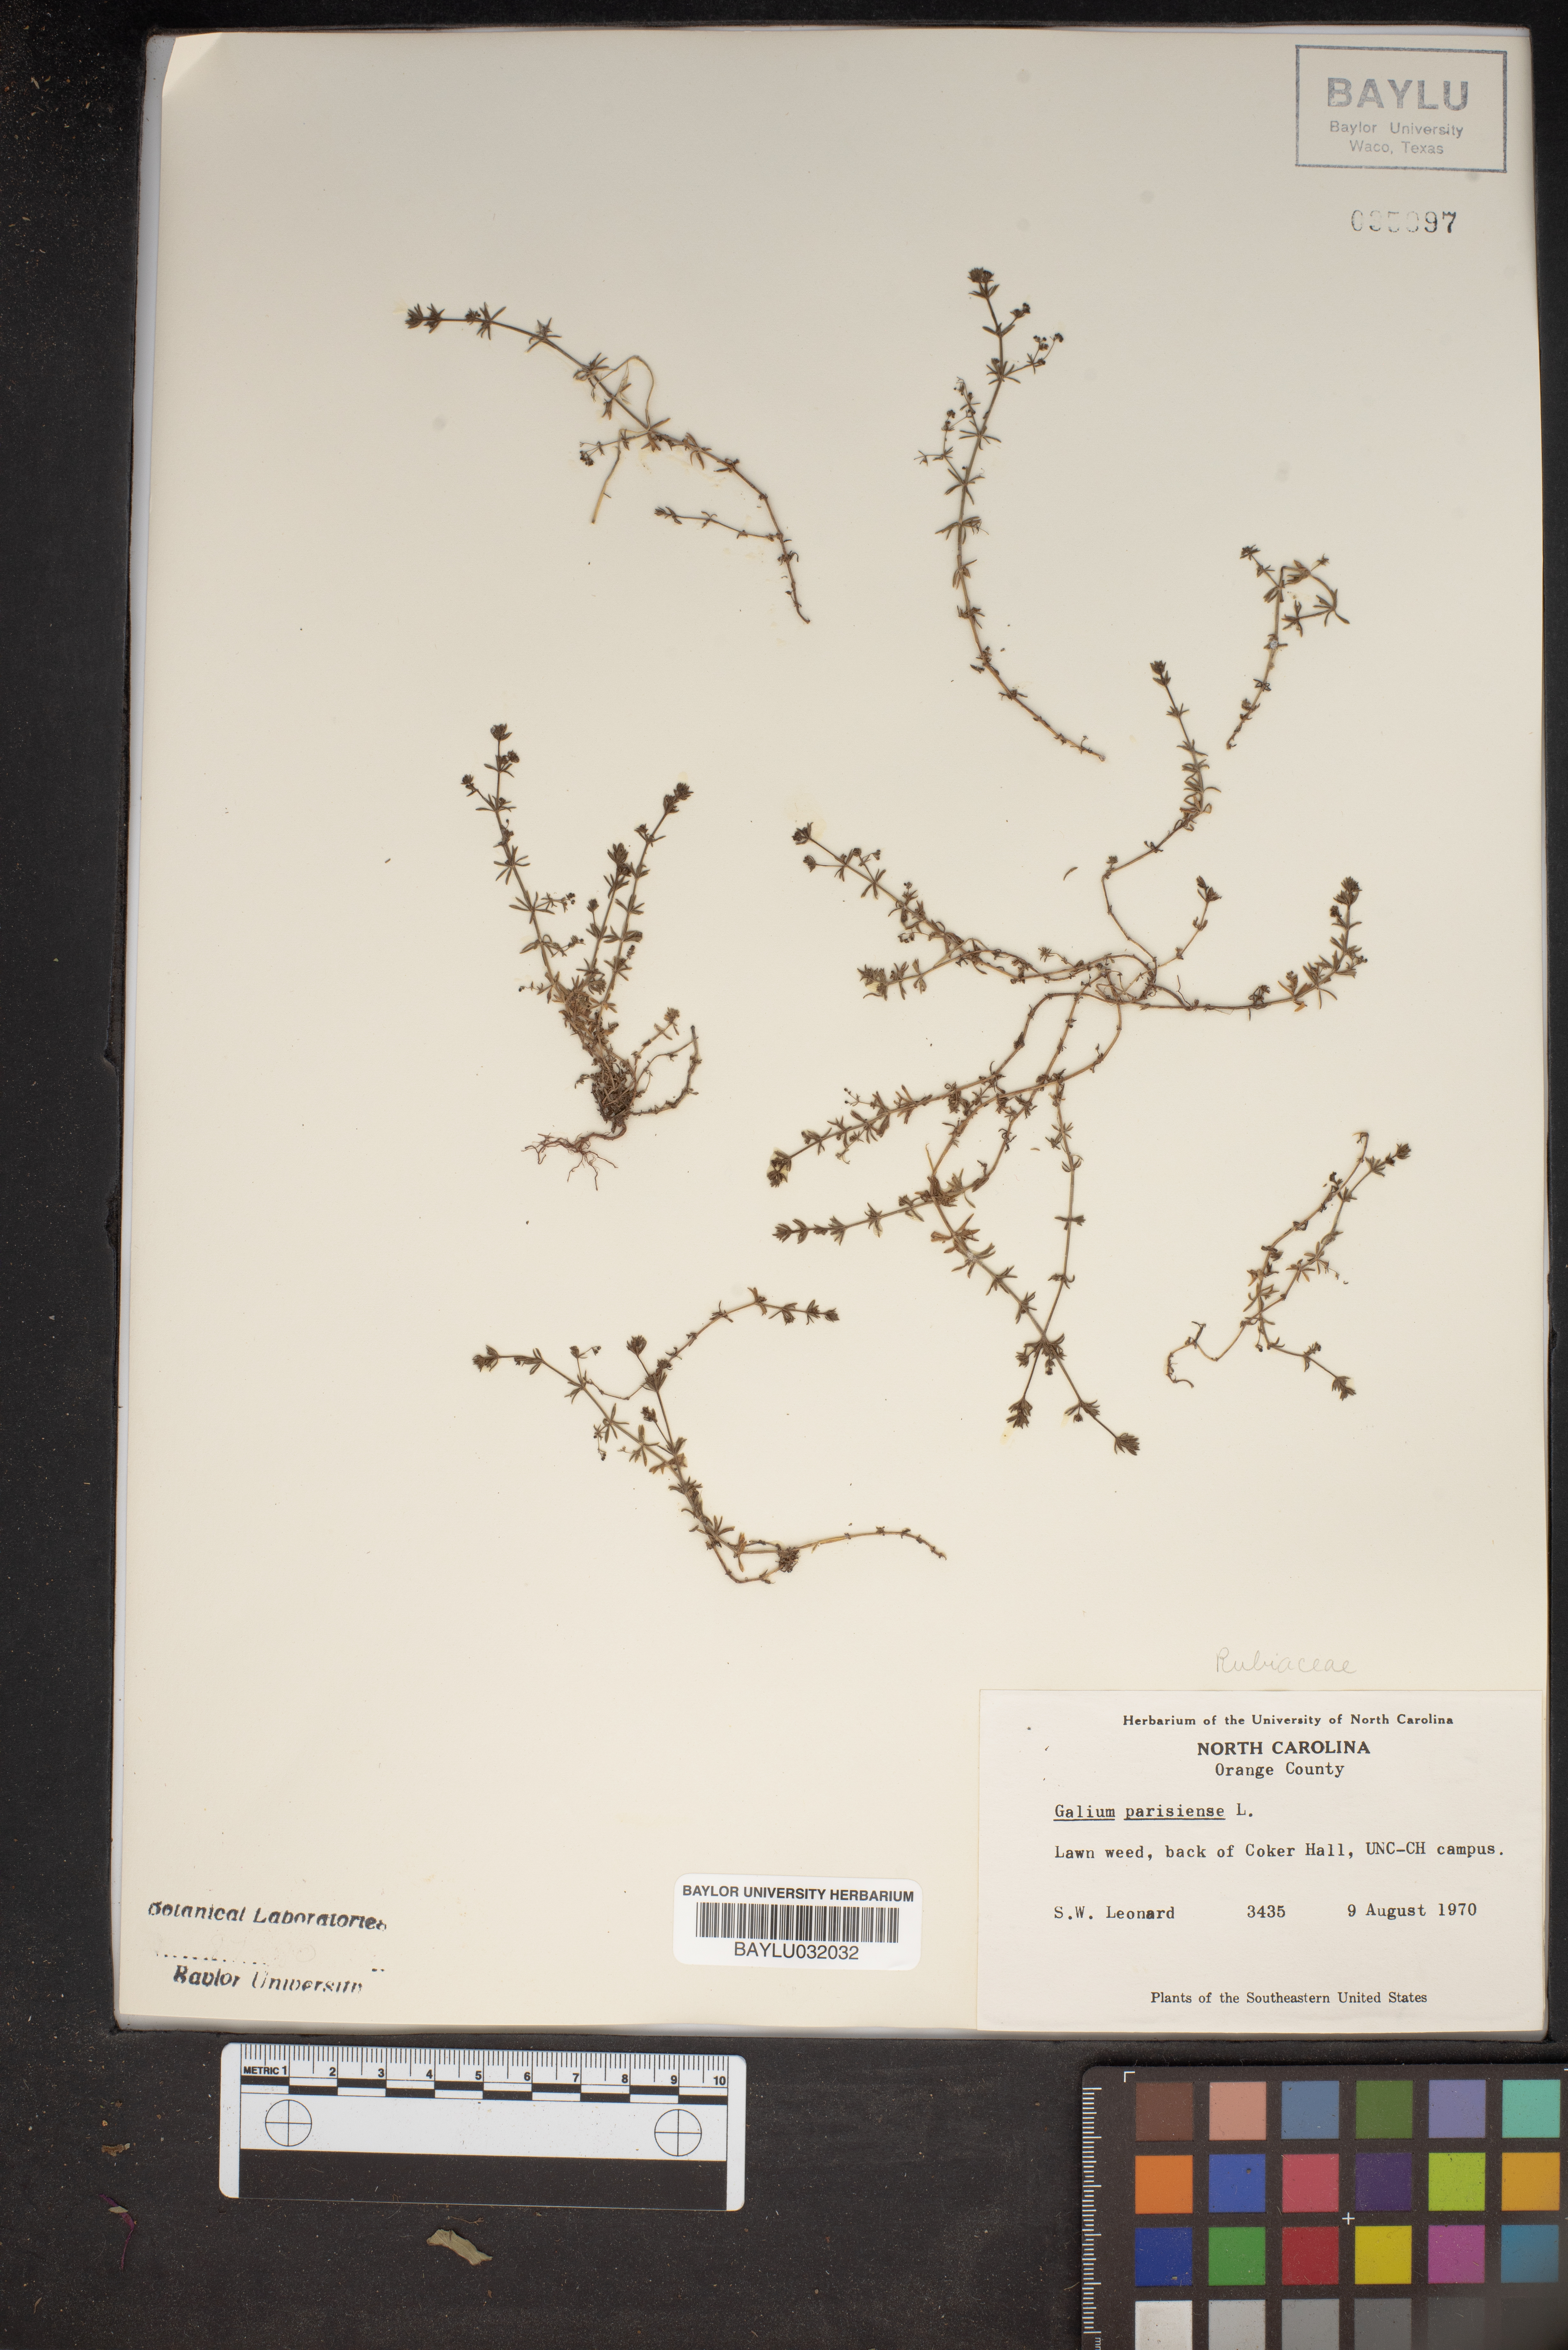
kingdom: Plantae
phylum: Tracheophyta
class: Magnoliopsida
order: Gentianales
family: Rubiaceae
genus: Galium
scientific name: Galium parisiense
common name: Wall bedstraw
